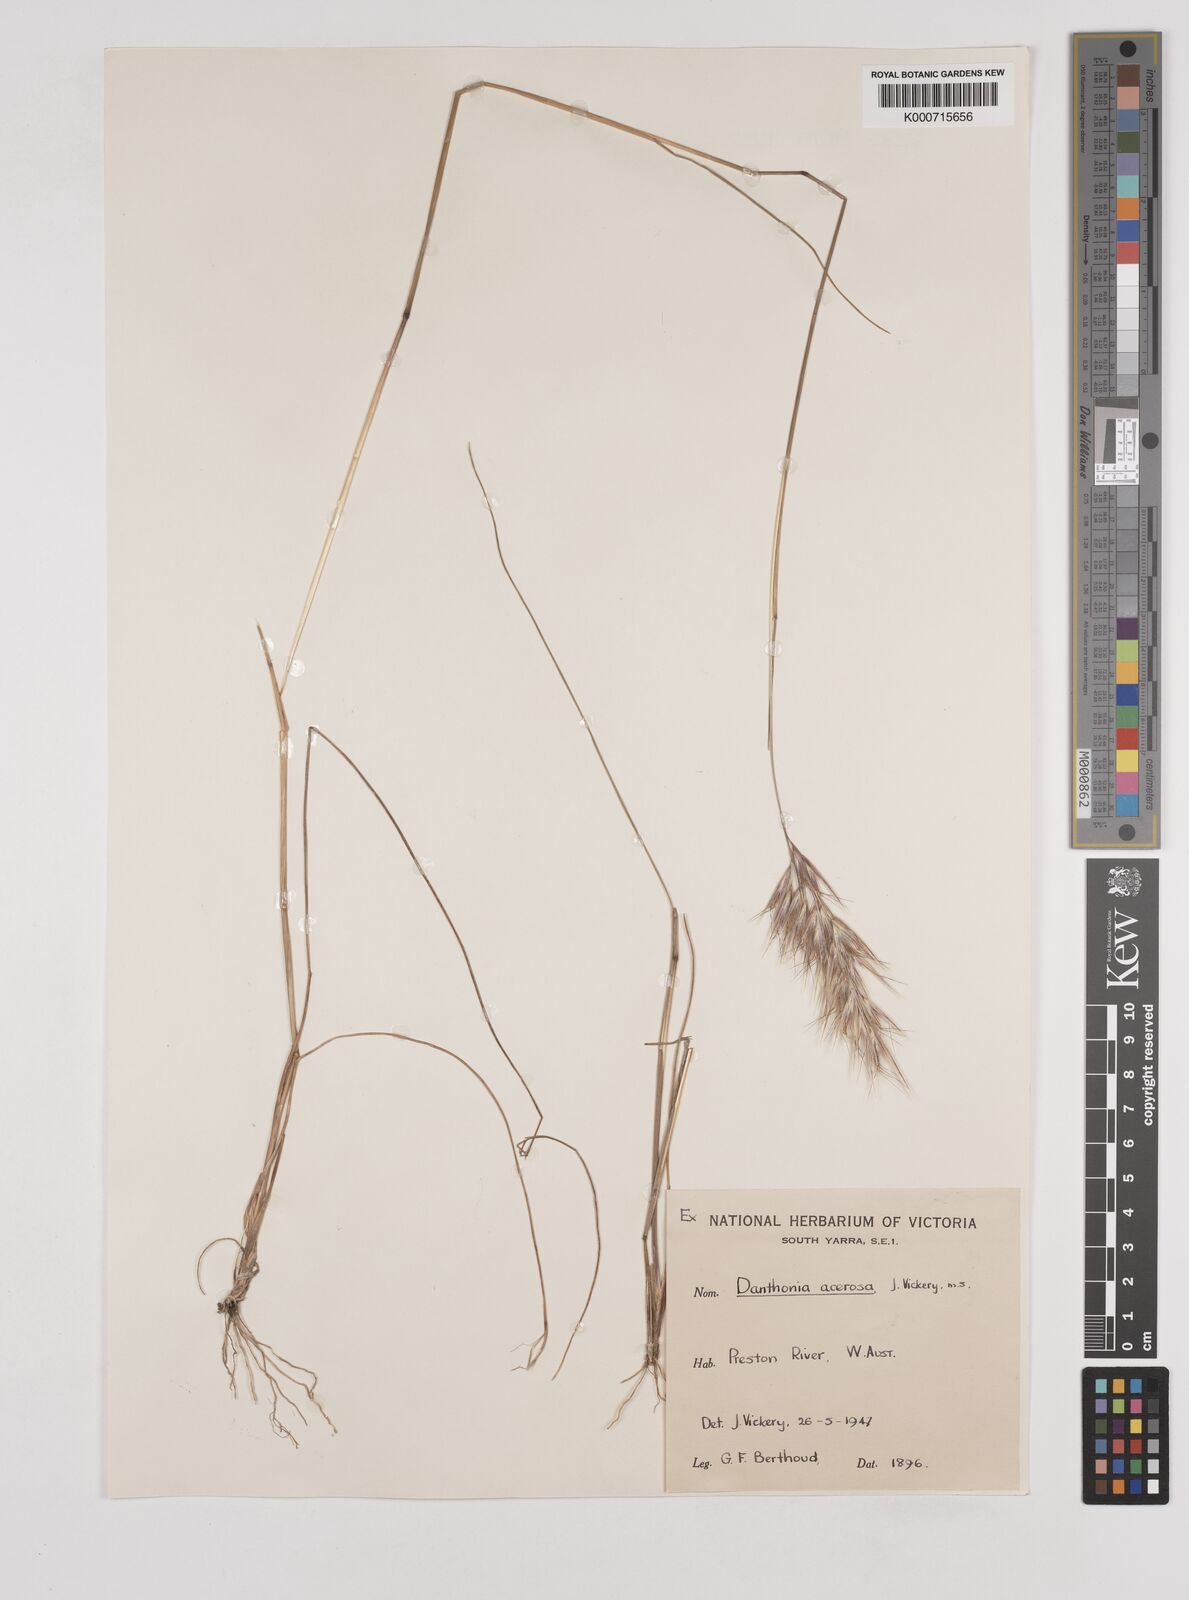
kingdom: Plantae
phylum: Tracheophyta
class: Liliopsida
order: Poales
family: Poaceae
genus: Rytidosperma
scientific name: Rytidosperma acerosum
